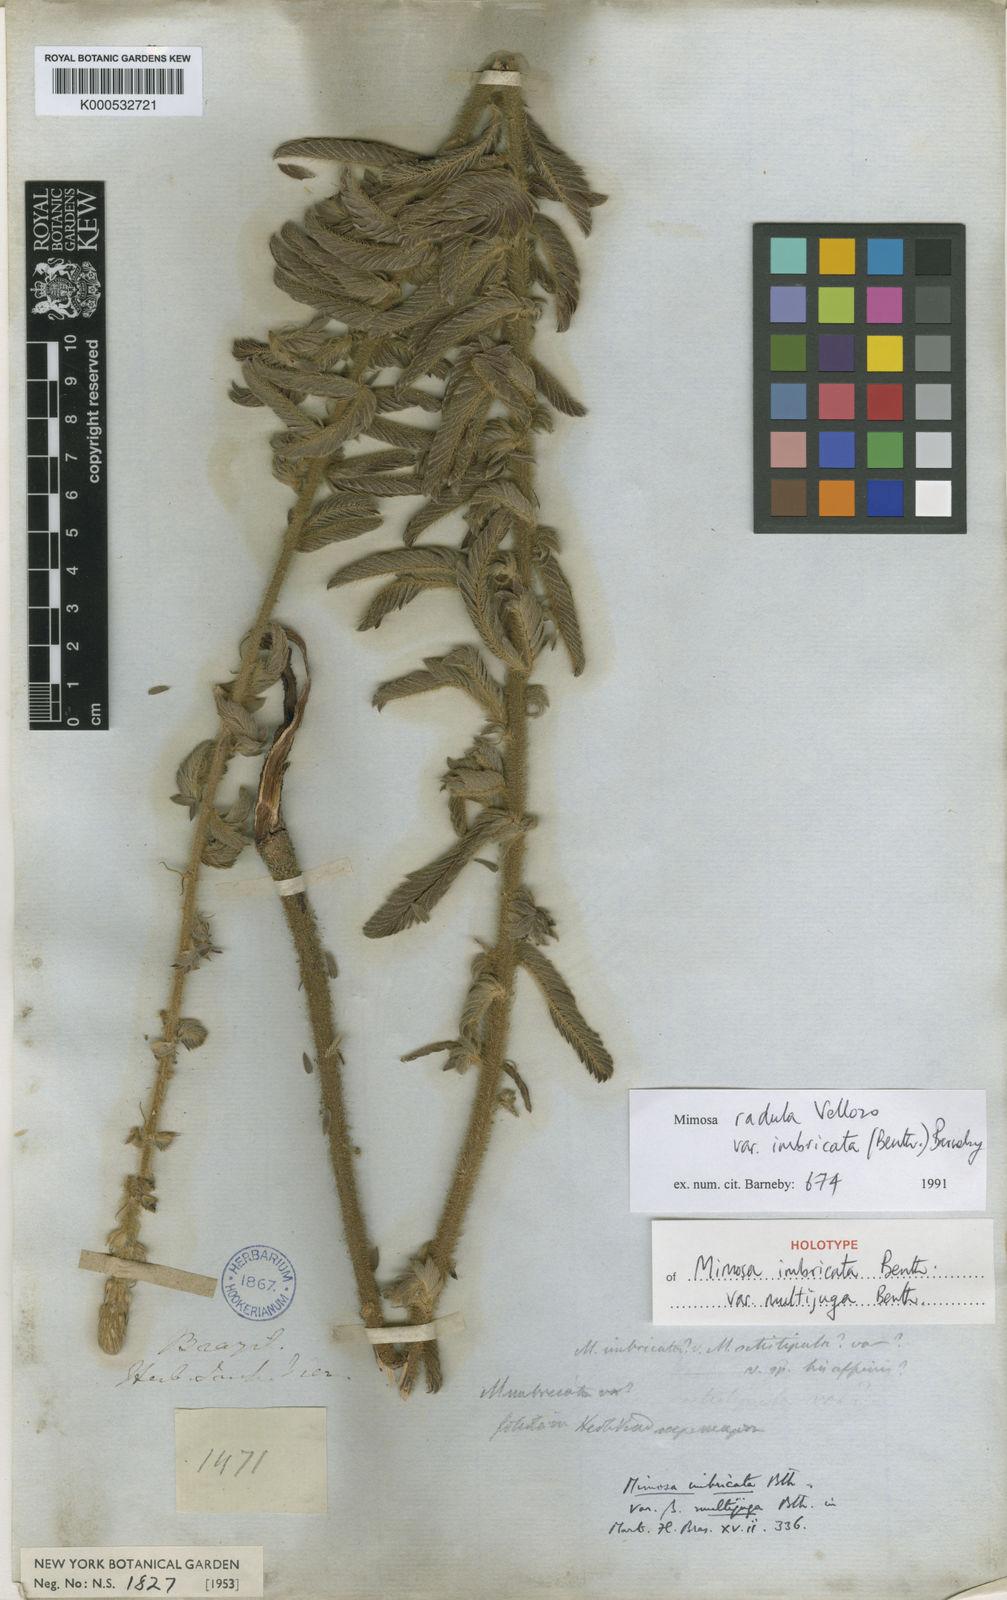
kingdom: Plantae
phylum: Tracheophyta
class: Magnoliopsida
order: Fabales
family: Fabaceae
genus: Mimosa
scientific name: Mimosa radula
